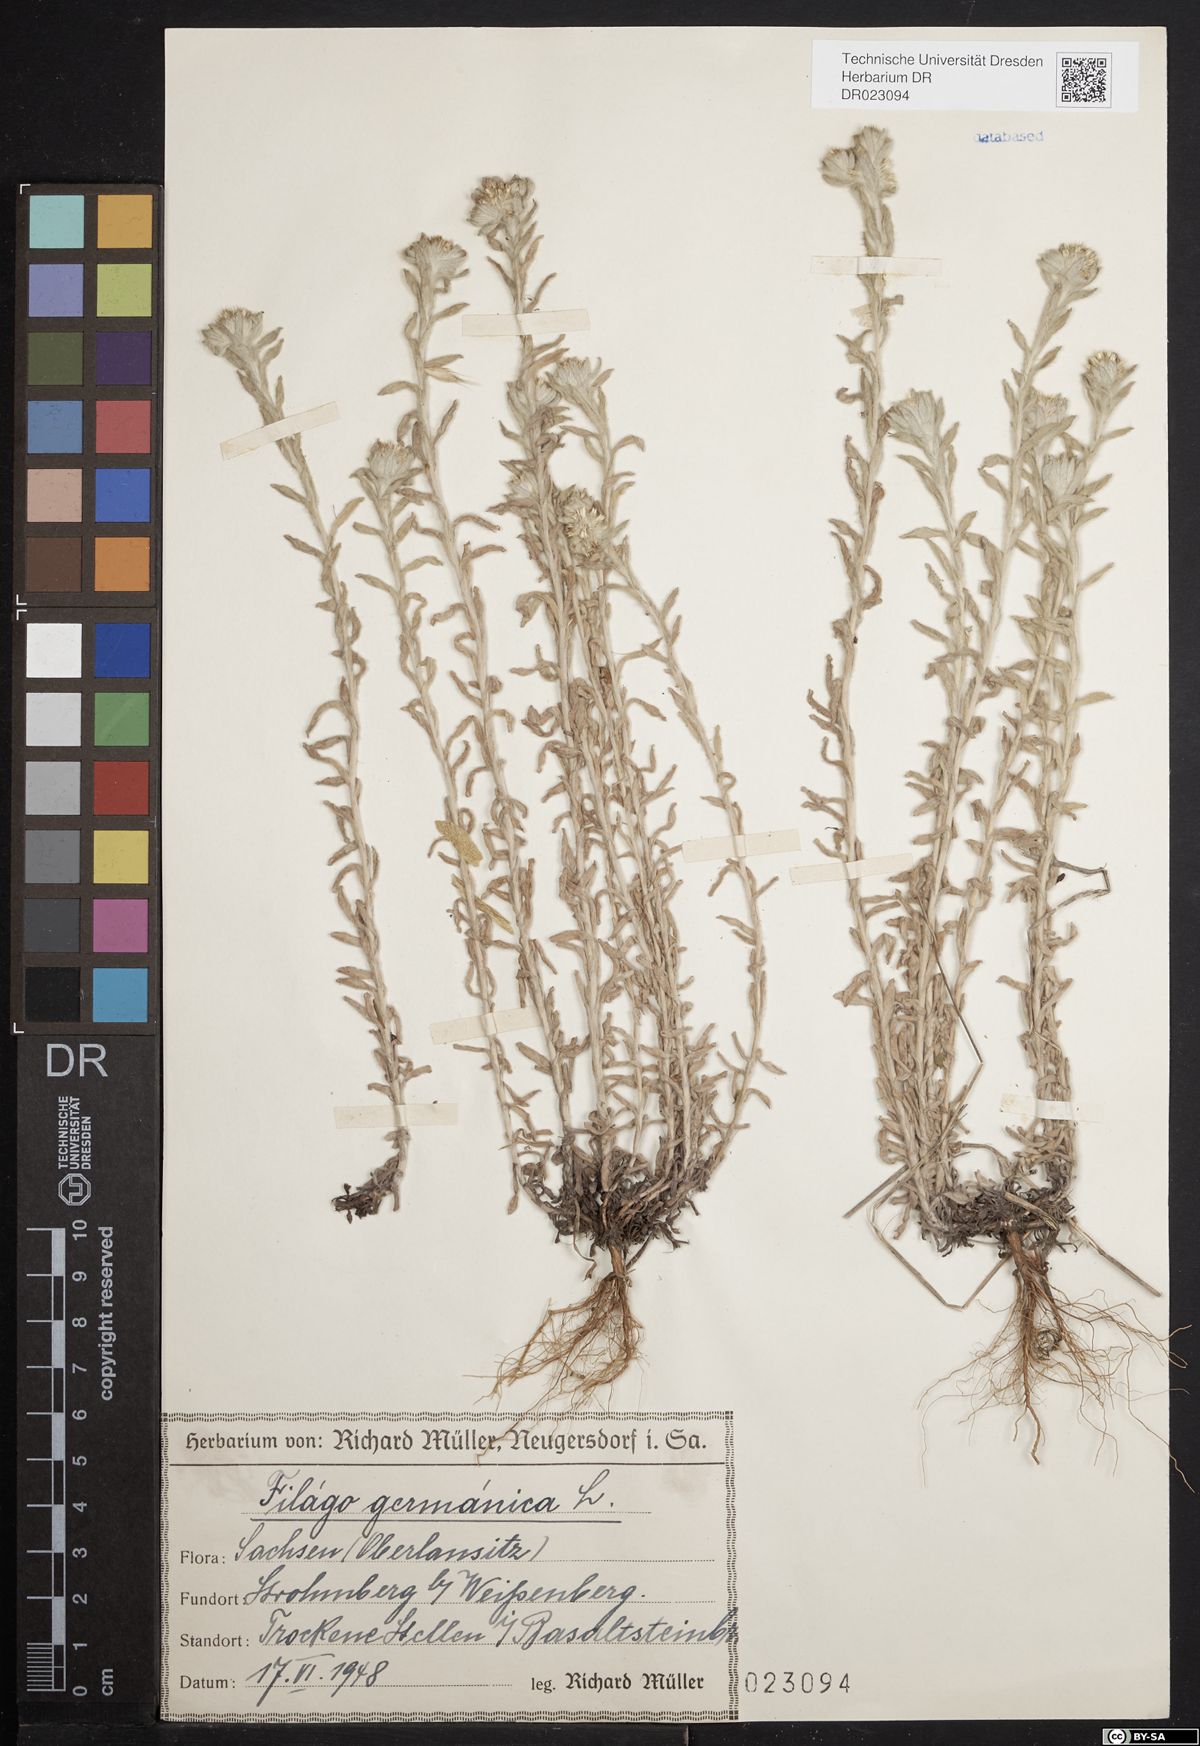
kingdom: Plantae
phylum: Tracheophyta
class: Magnoliopsida
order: Asterales
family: Asteraceae
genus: Filago
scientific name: Filago germanica
